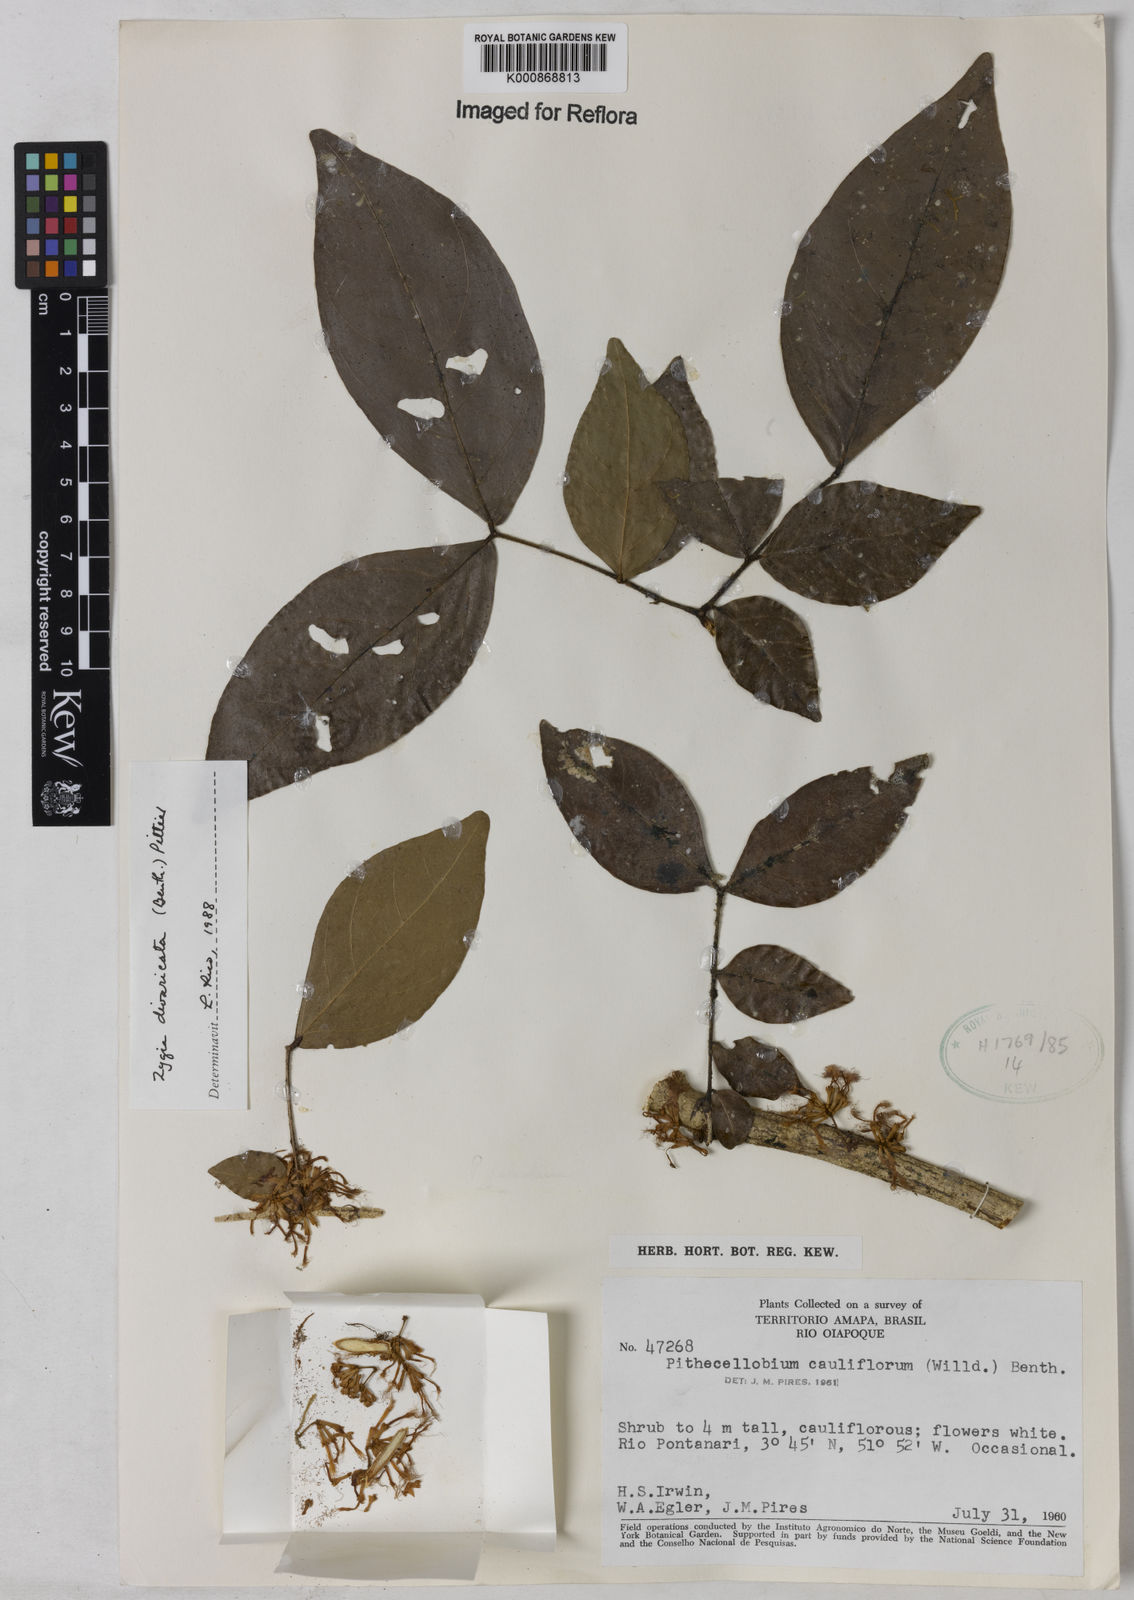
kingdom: Plantae
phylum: Tracheophyta
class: Magnoliopsida
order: Fabales
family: Fabaceae
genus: Zygia
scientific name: Zygia cataractae
